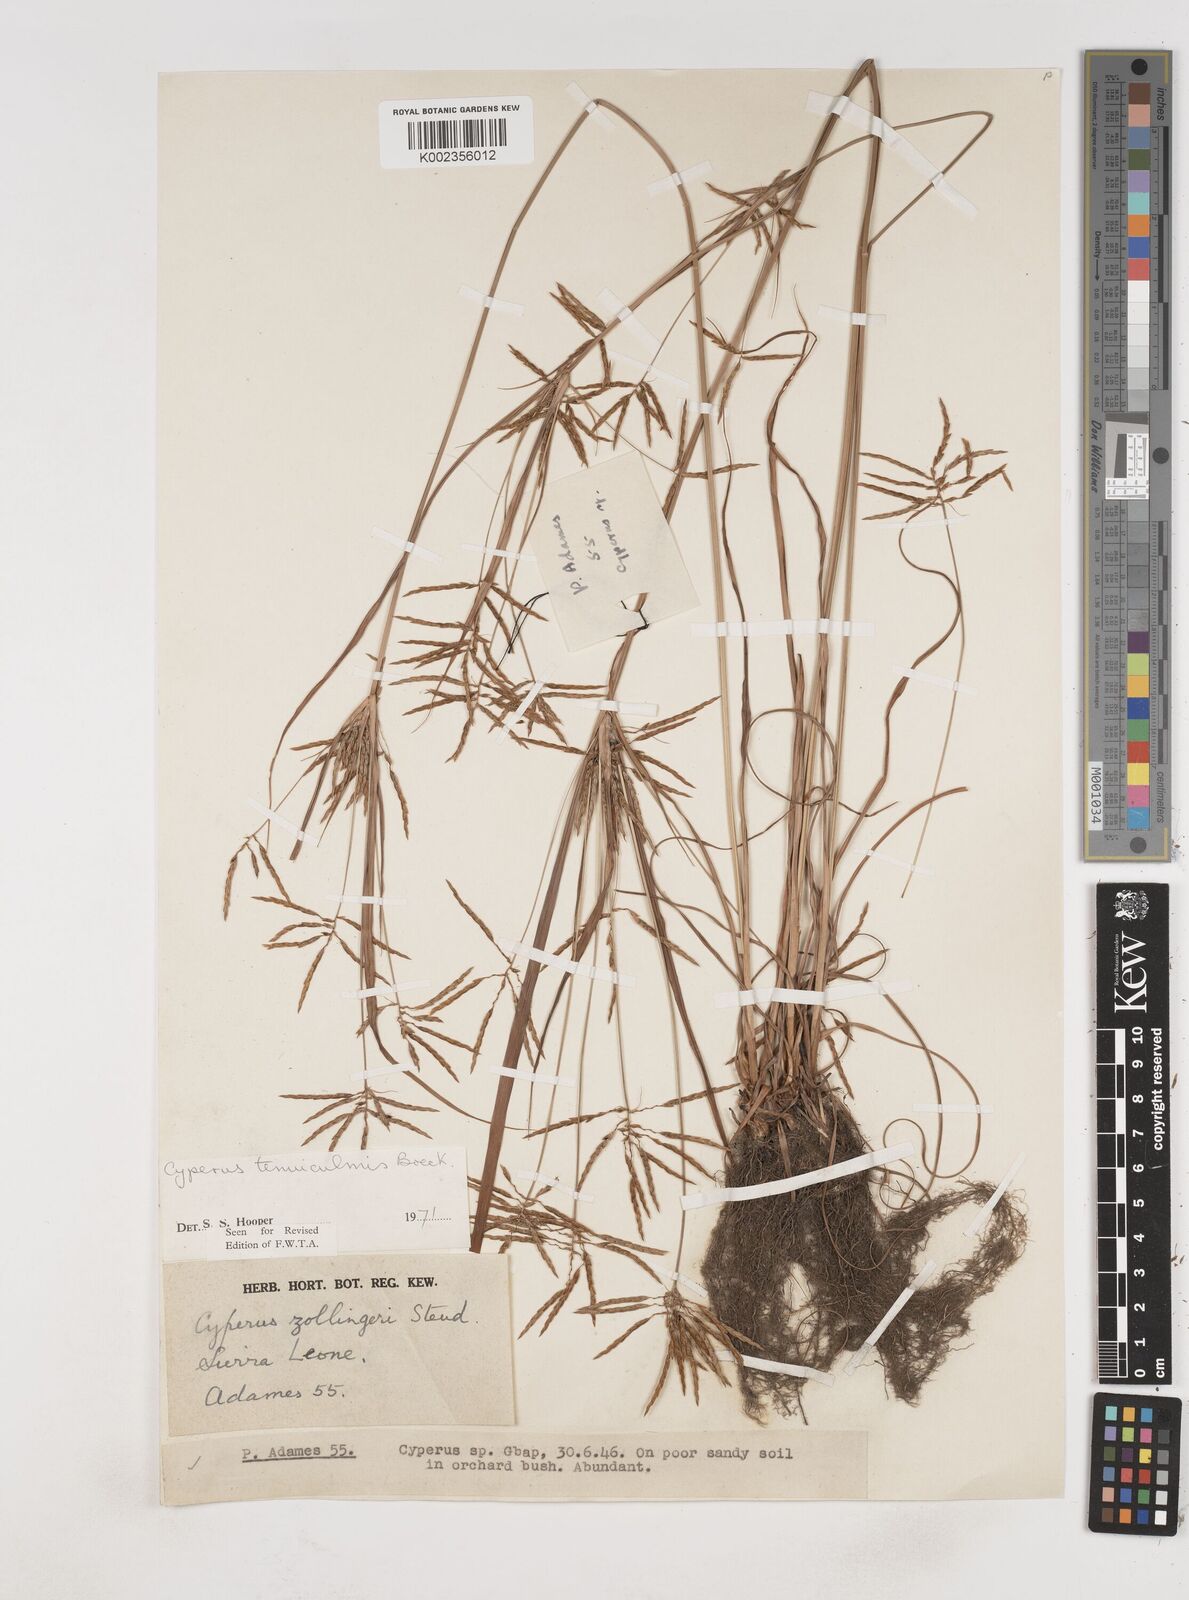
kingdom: Plantae
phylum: Tracheophyta
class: Liliopsida
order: Poales
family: Cyperaceae
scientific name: Cyperaceae
